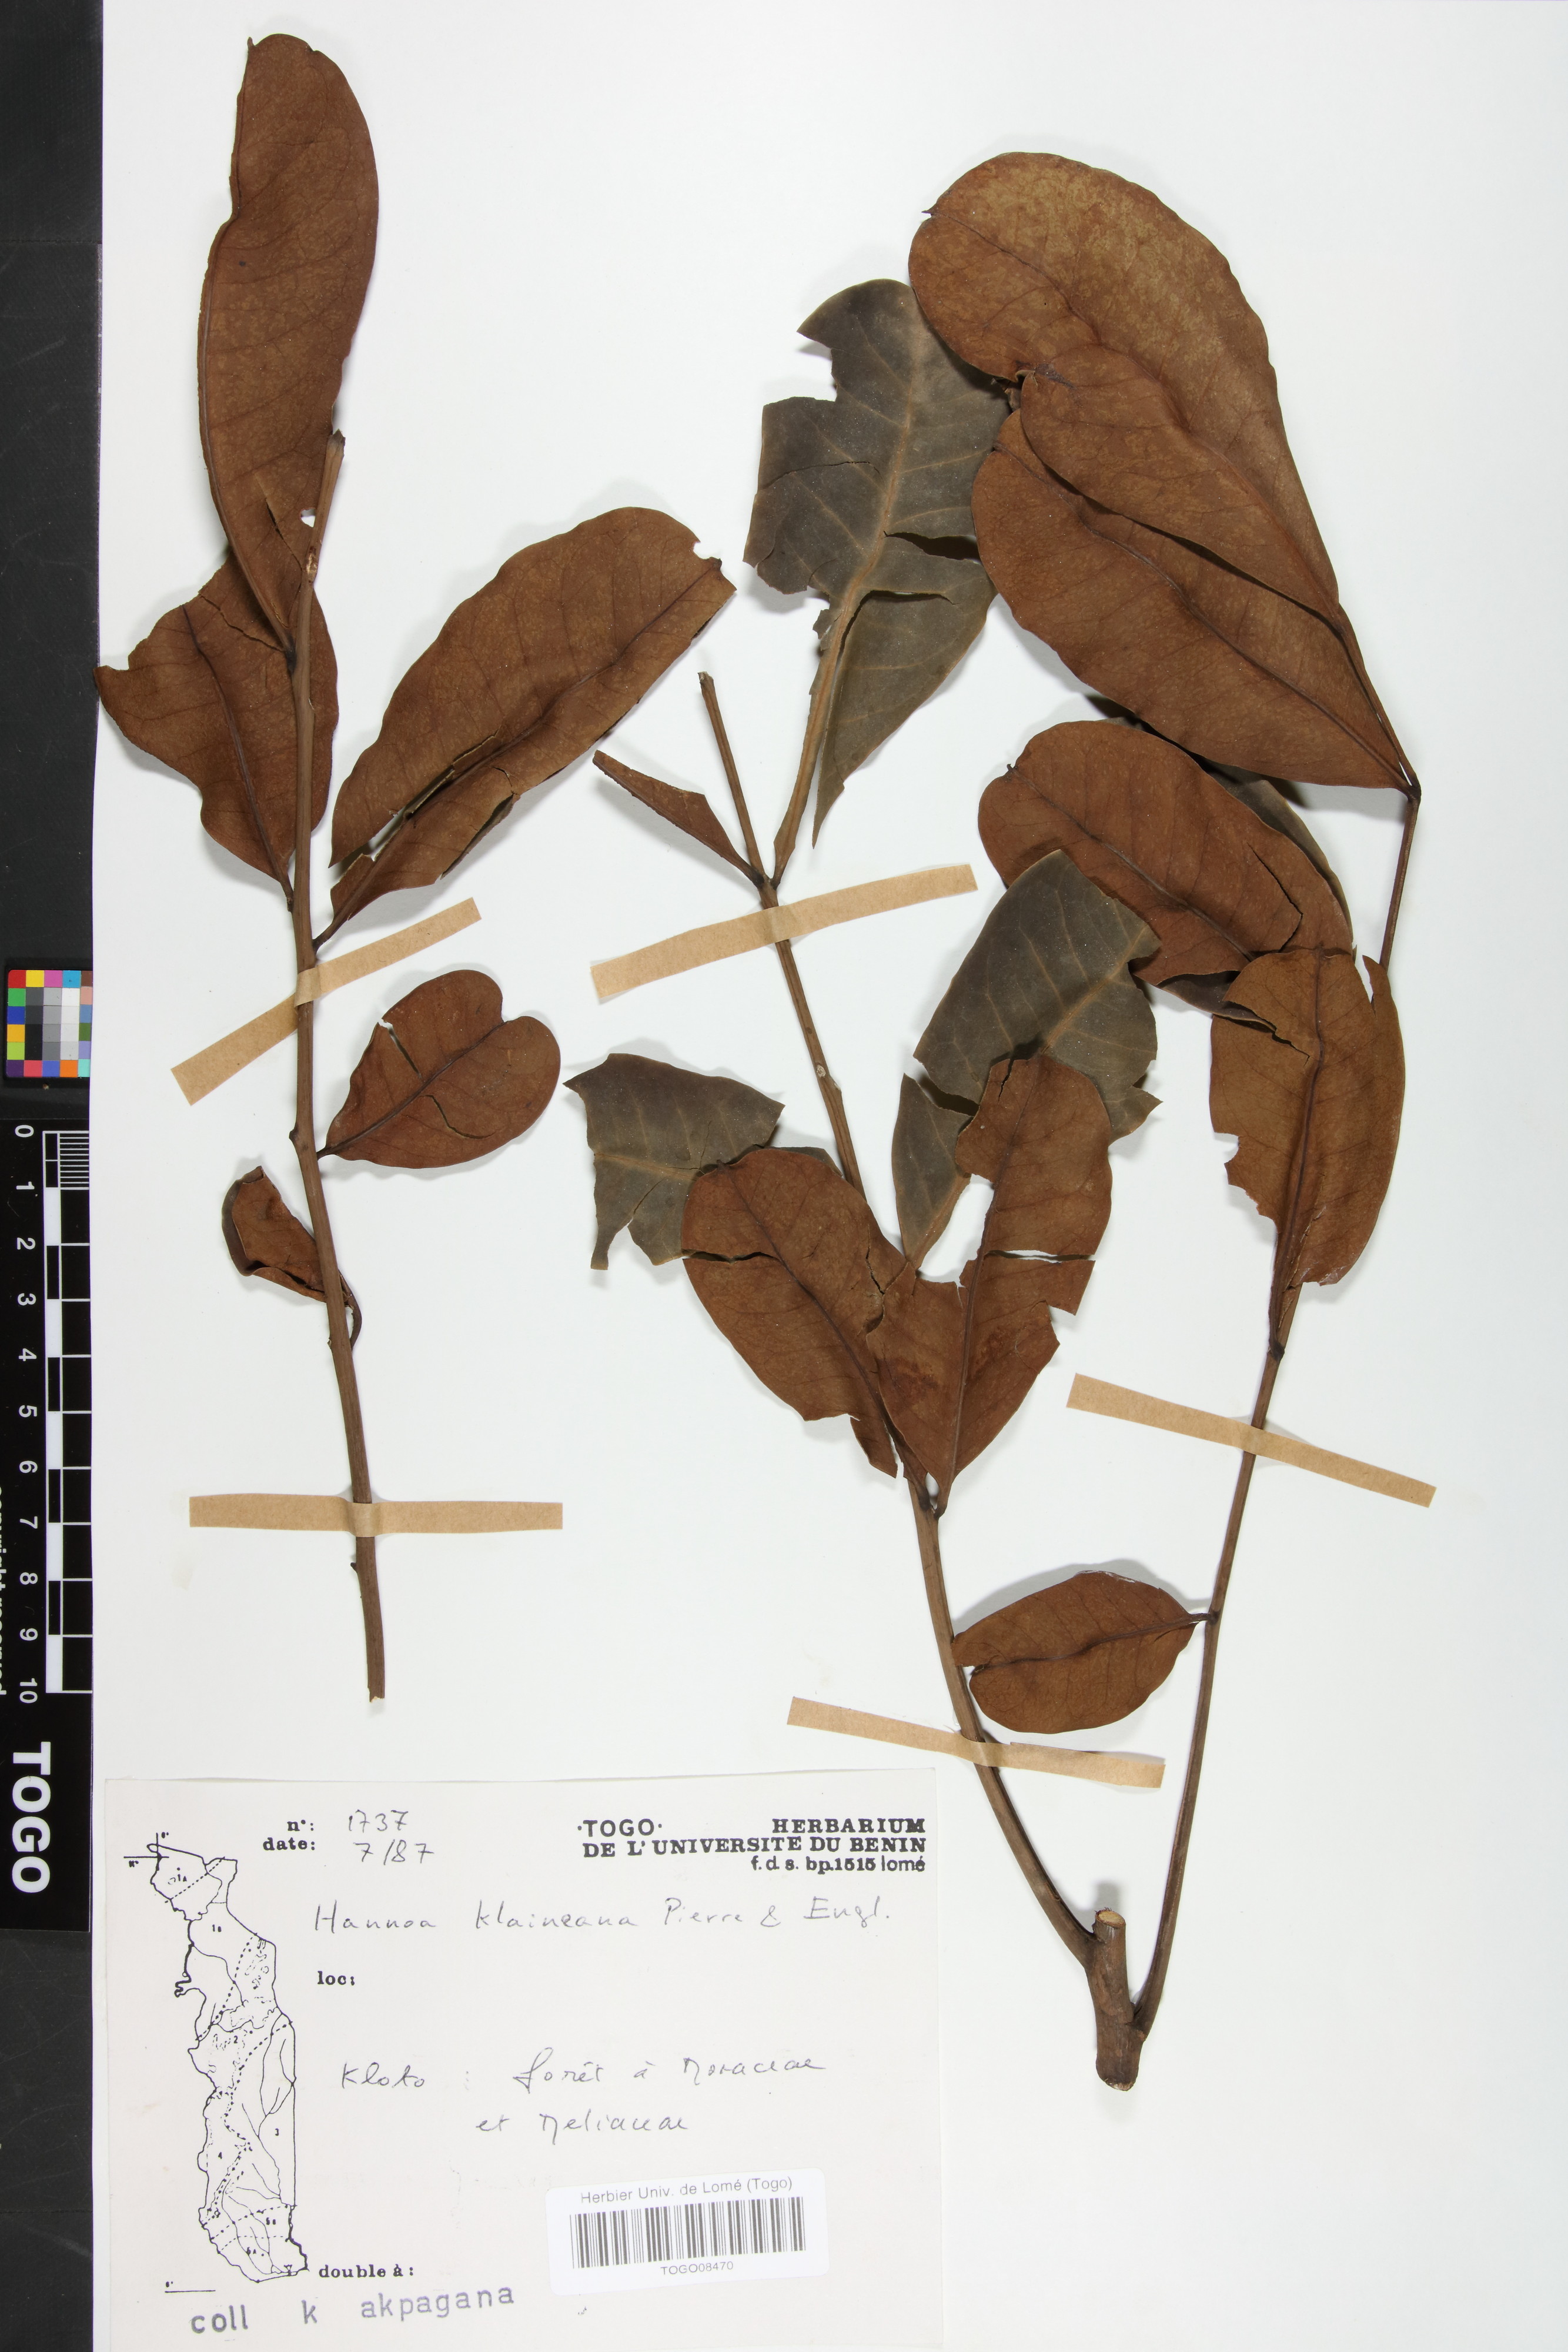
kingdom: Plantae
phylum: Tracheophyta
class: Magnoliopsida
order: Sapindales
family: Simaroubaceae
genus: Odyendyea
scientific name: Odyendyea klaineana
